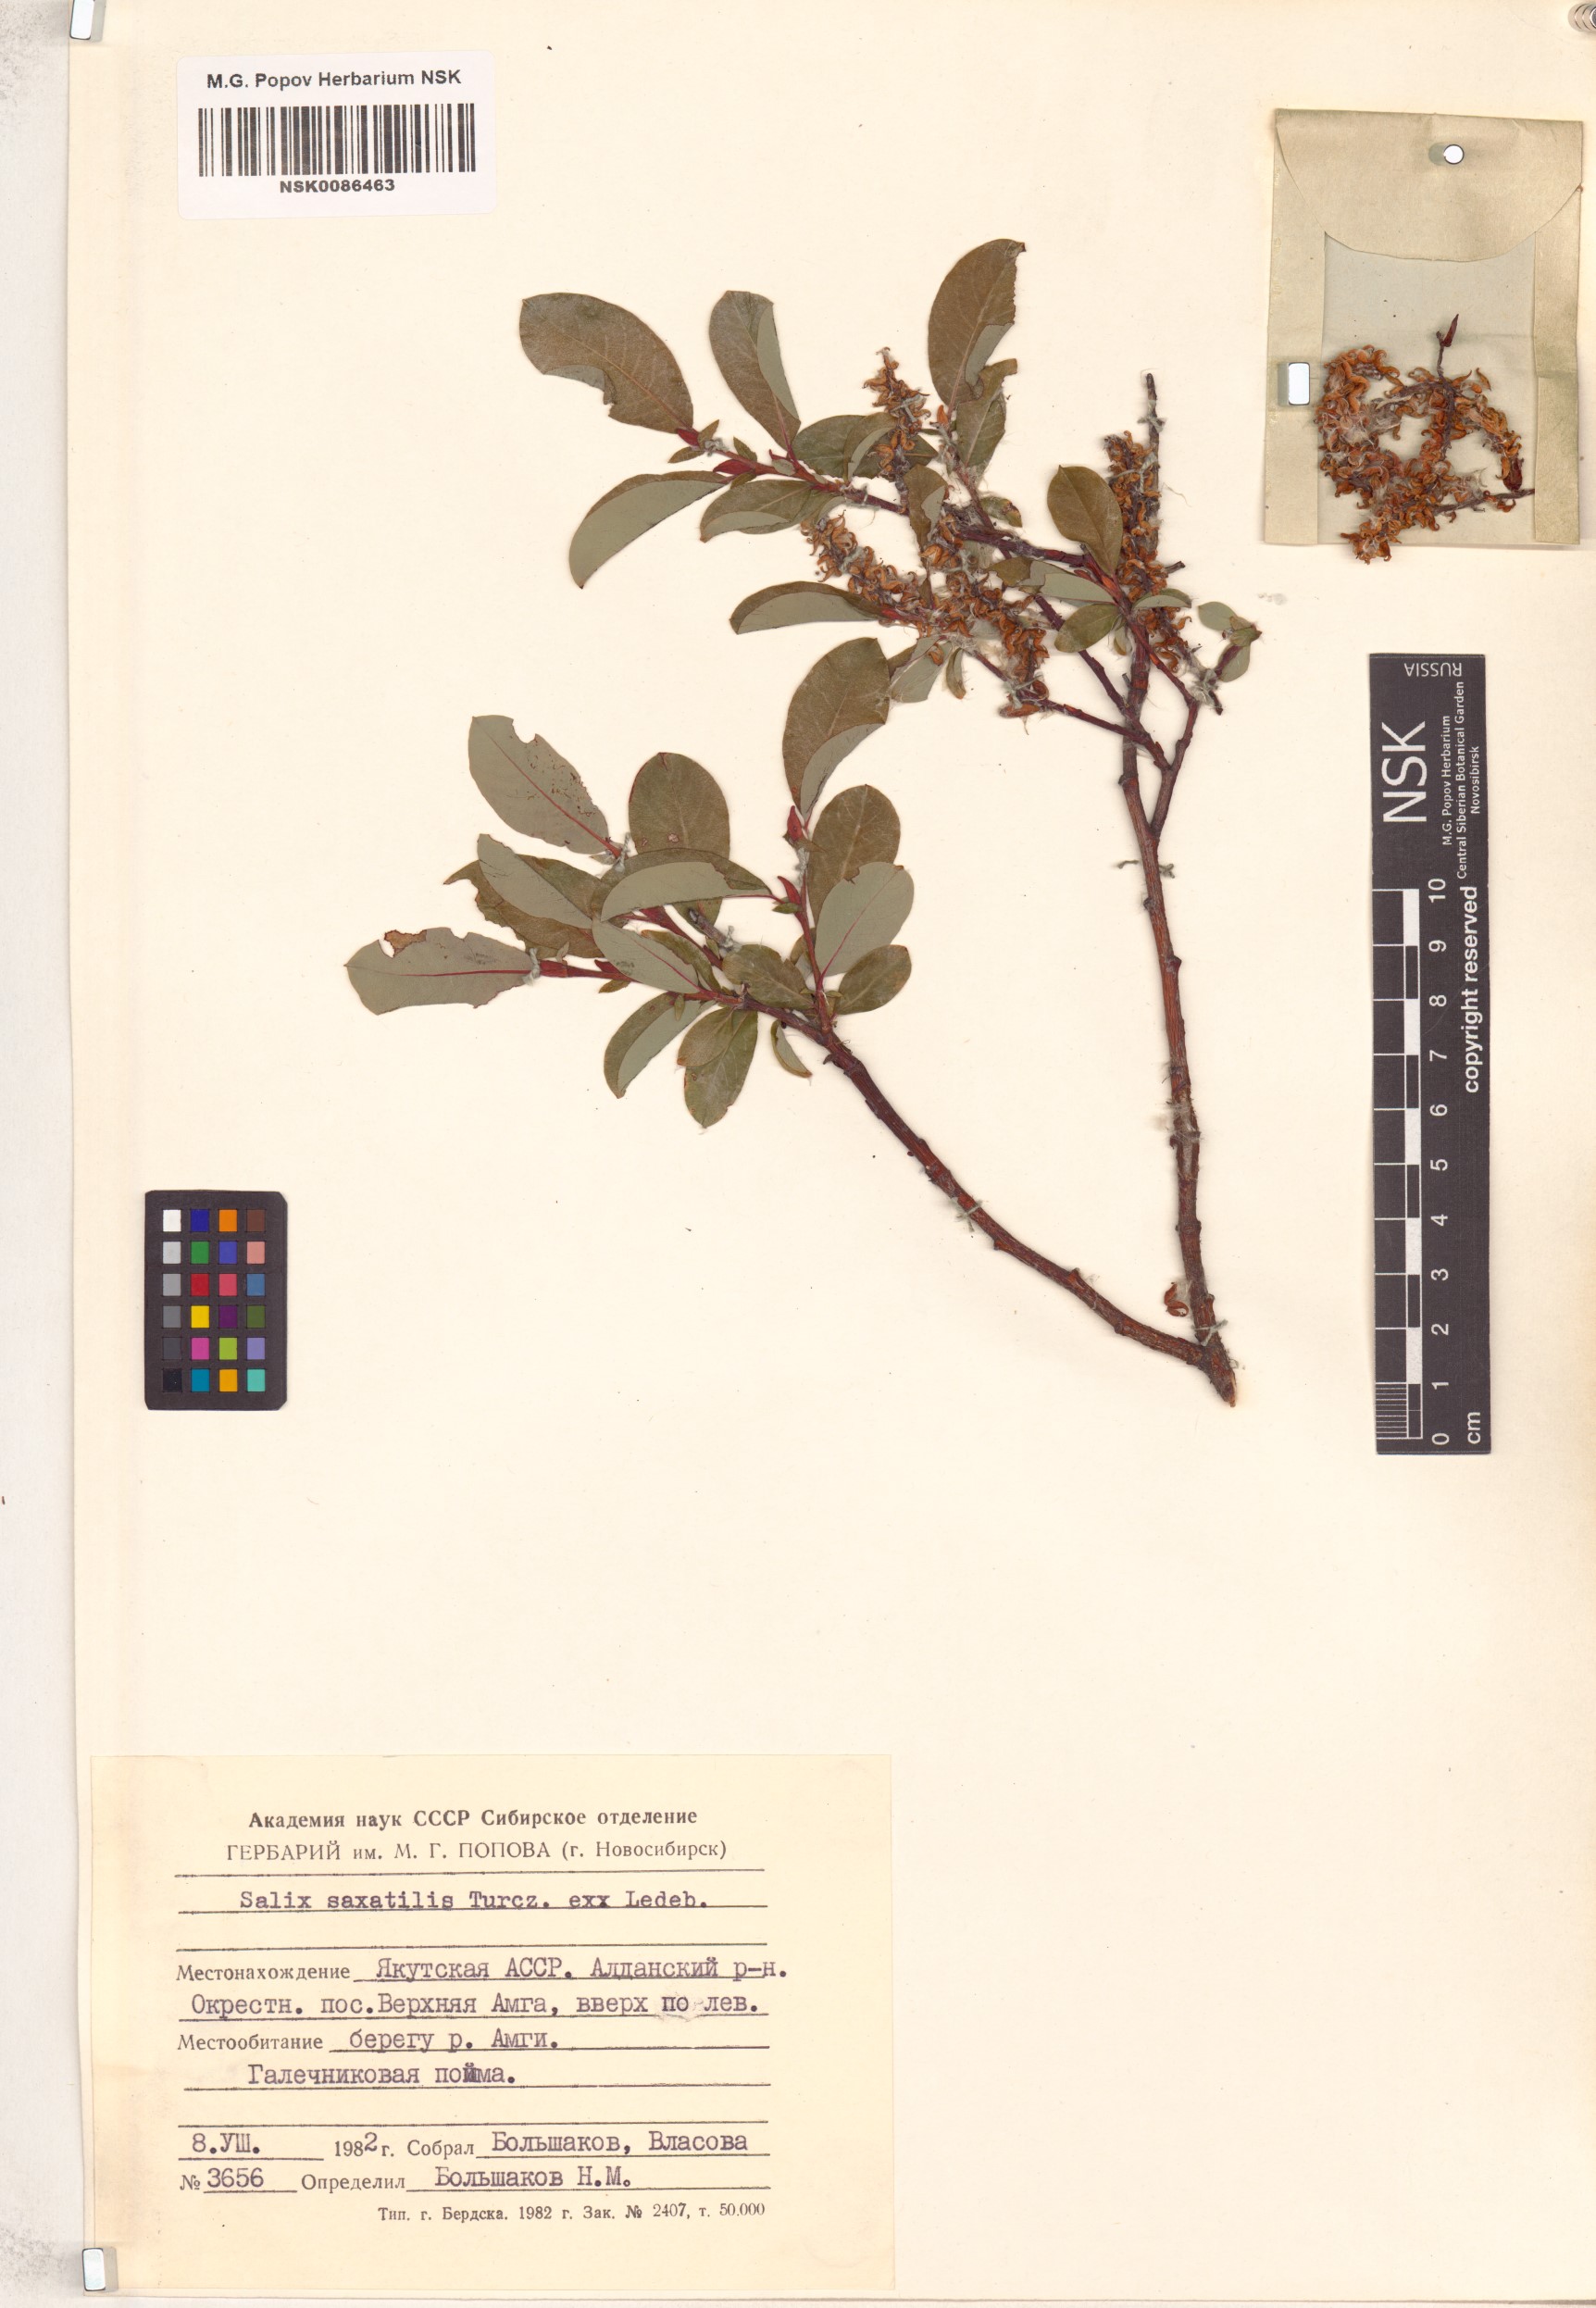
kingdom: Plantae
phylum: Tracheophyta
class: Magnoliopsida
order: Malpighiales
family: Salicaceae
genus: Salix
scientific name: Salix saxatilis
